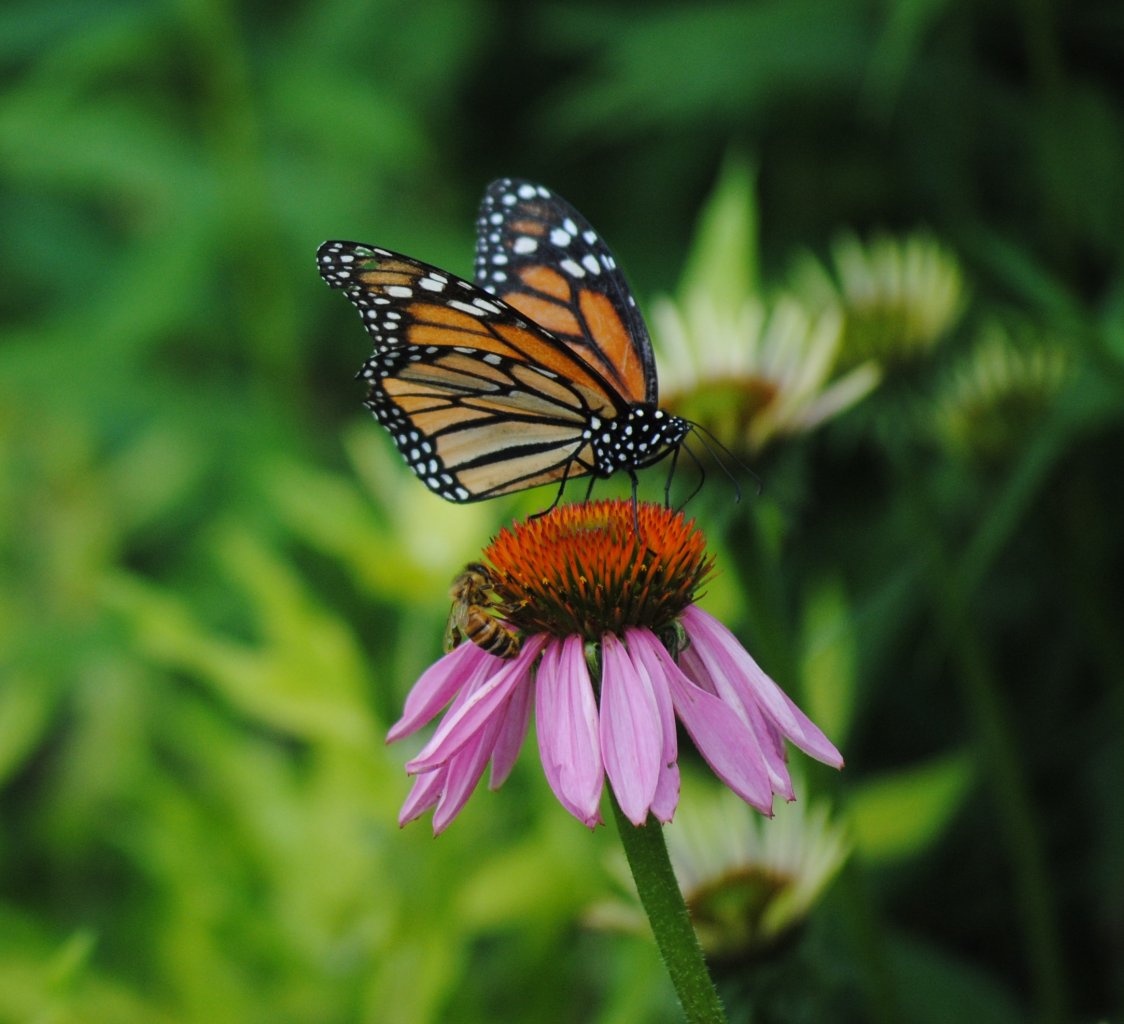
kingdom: Animalia
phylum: Arthropoda
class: Insecta
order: Lepidoptera
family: Nymphalidae
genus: Danaus
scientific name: Danaus plexippus
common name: Monarch
